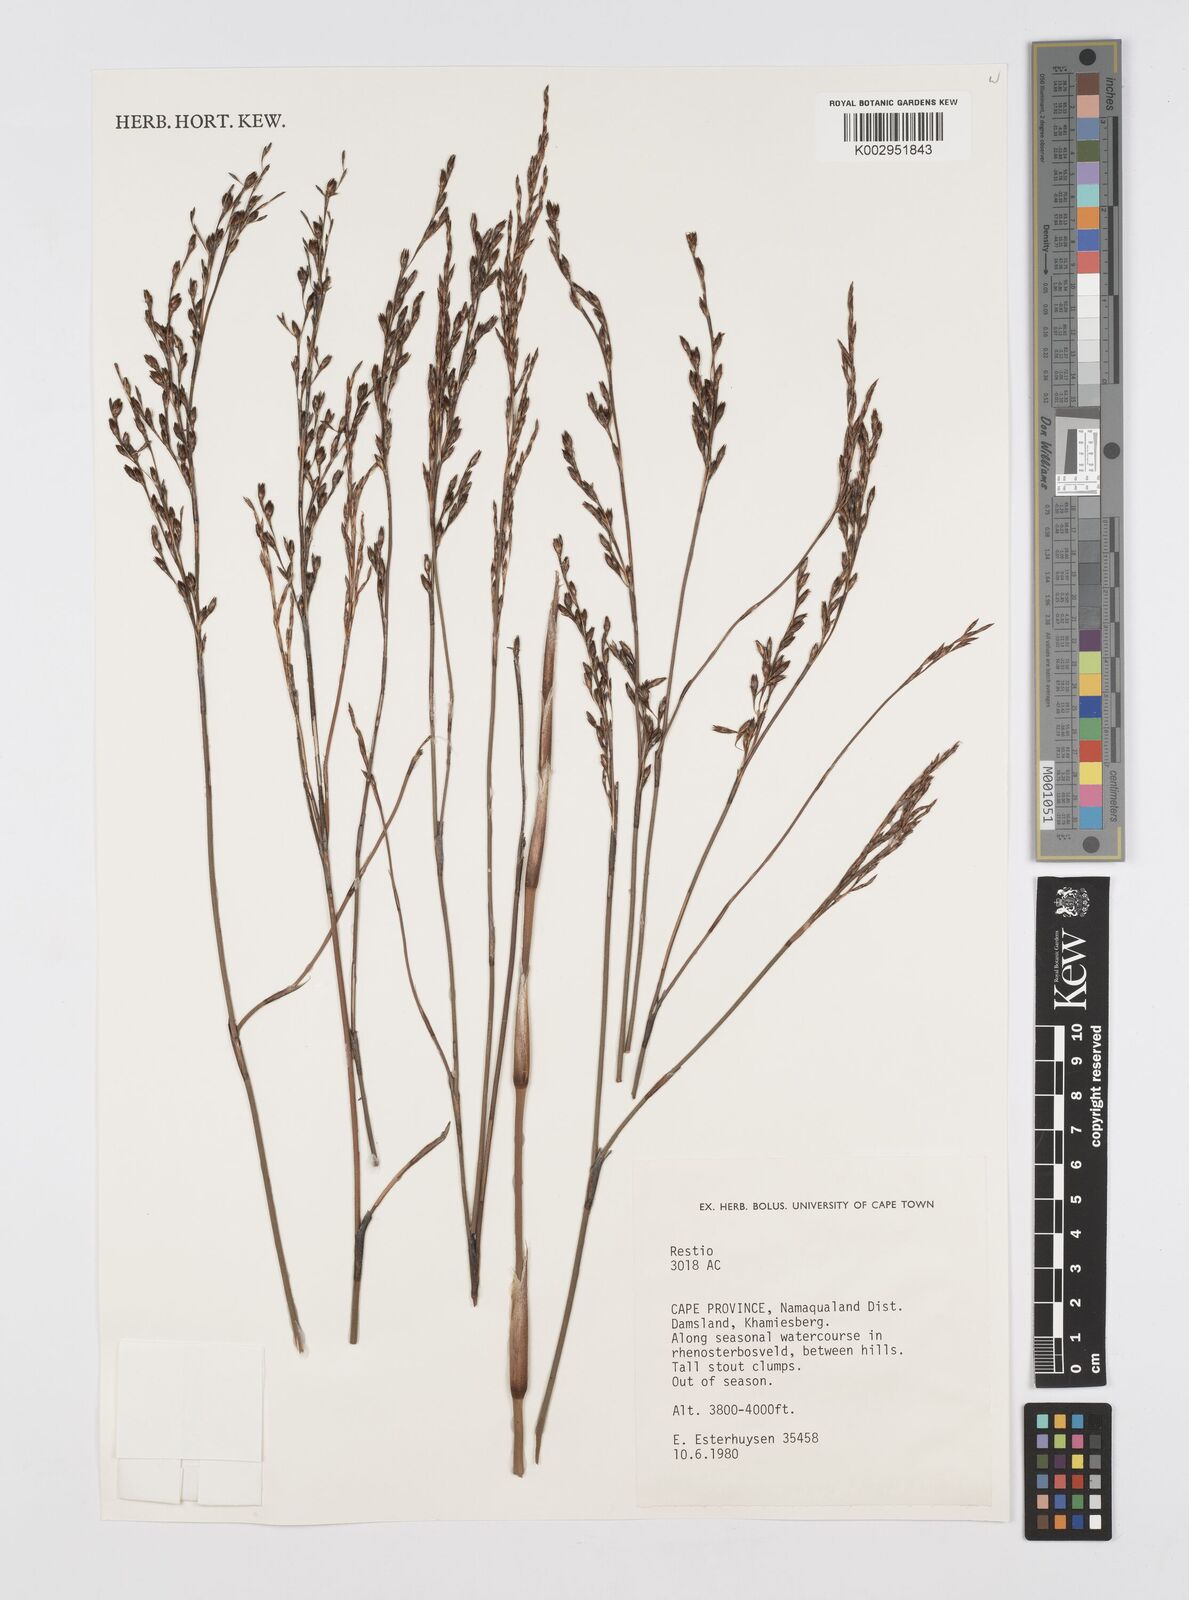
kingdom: Plantae
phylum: Tracheophyta
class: Liliopsida
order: Poales
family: Restionaceae
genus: Restio
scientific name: Restio
